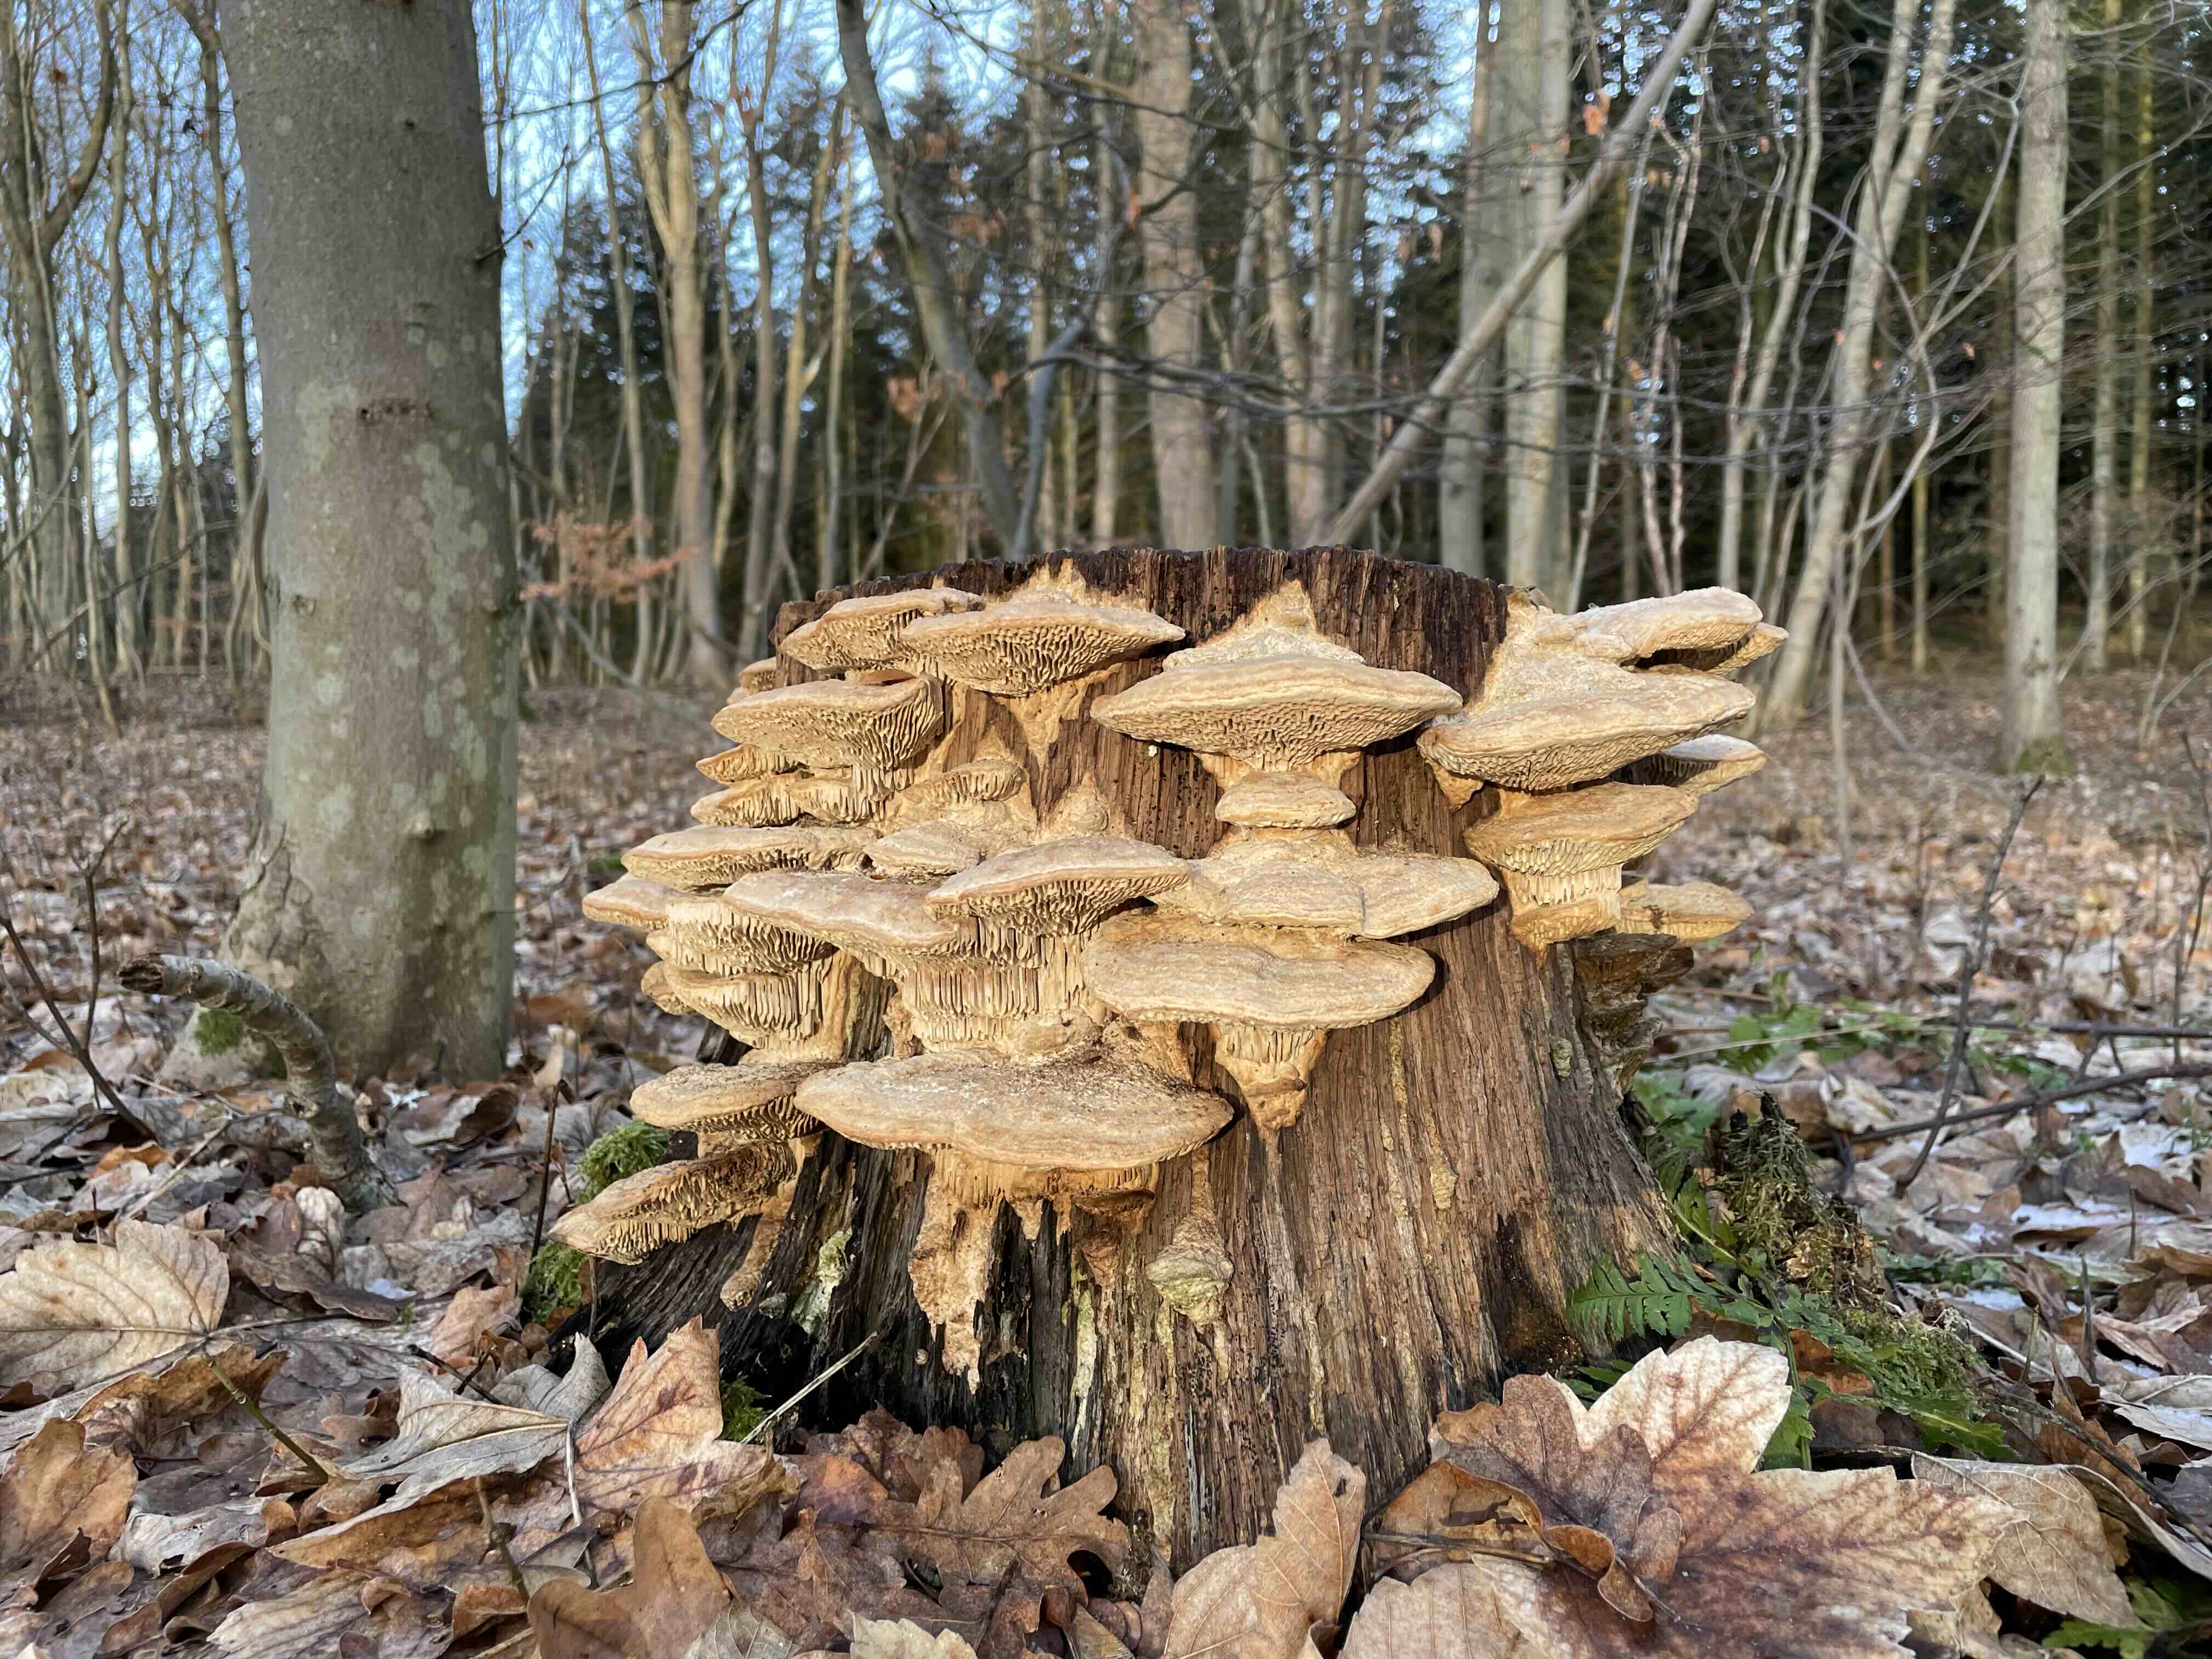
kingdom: Fungi
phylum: Basidiomycota
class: Agaricomycetes
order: Polyporales
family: Fomitopsidaceae
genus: Daedalea
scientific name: Daedalea quercina
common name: ege-labyrintsvamp
